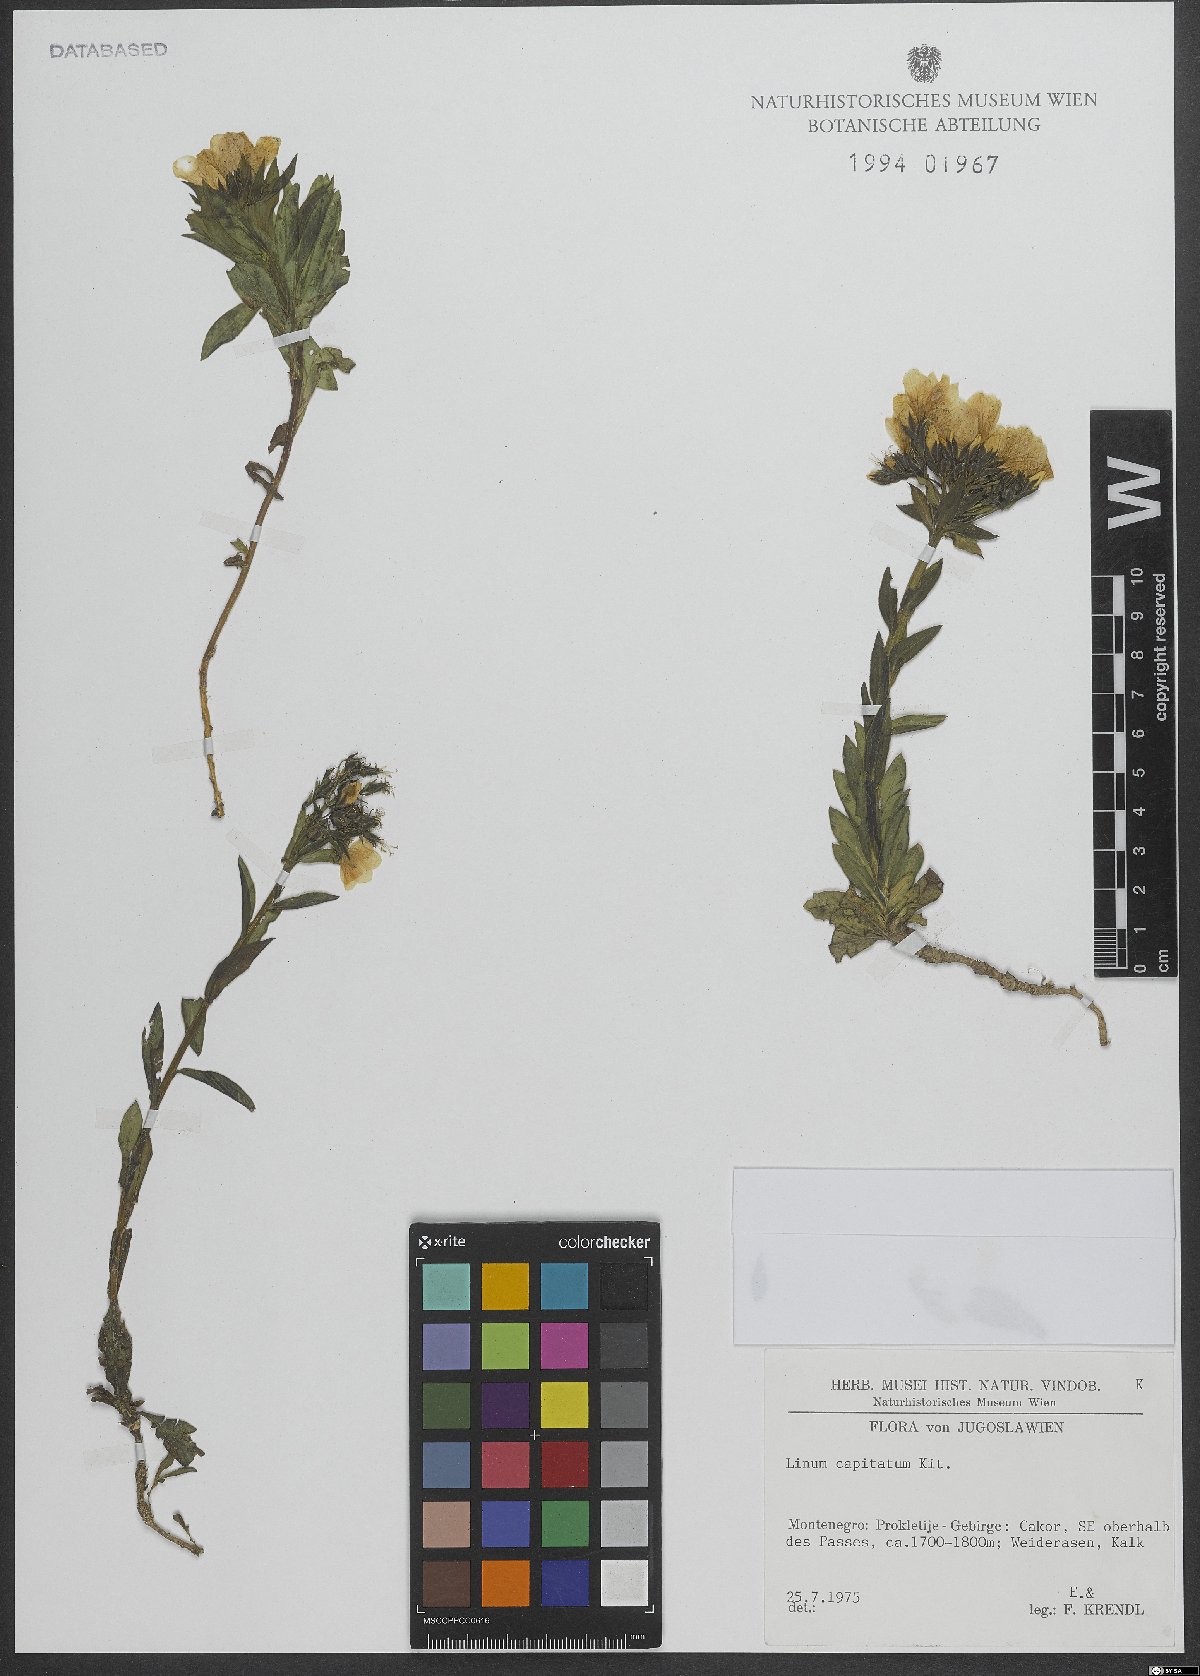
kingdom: Plantae
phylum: Tracheophyta
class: Magnoliopsida
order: Malpighiales
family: Linaceae
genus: Linum
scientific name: Linum capitatum
